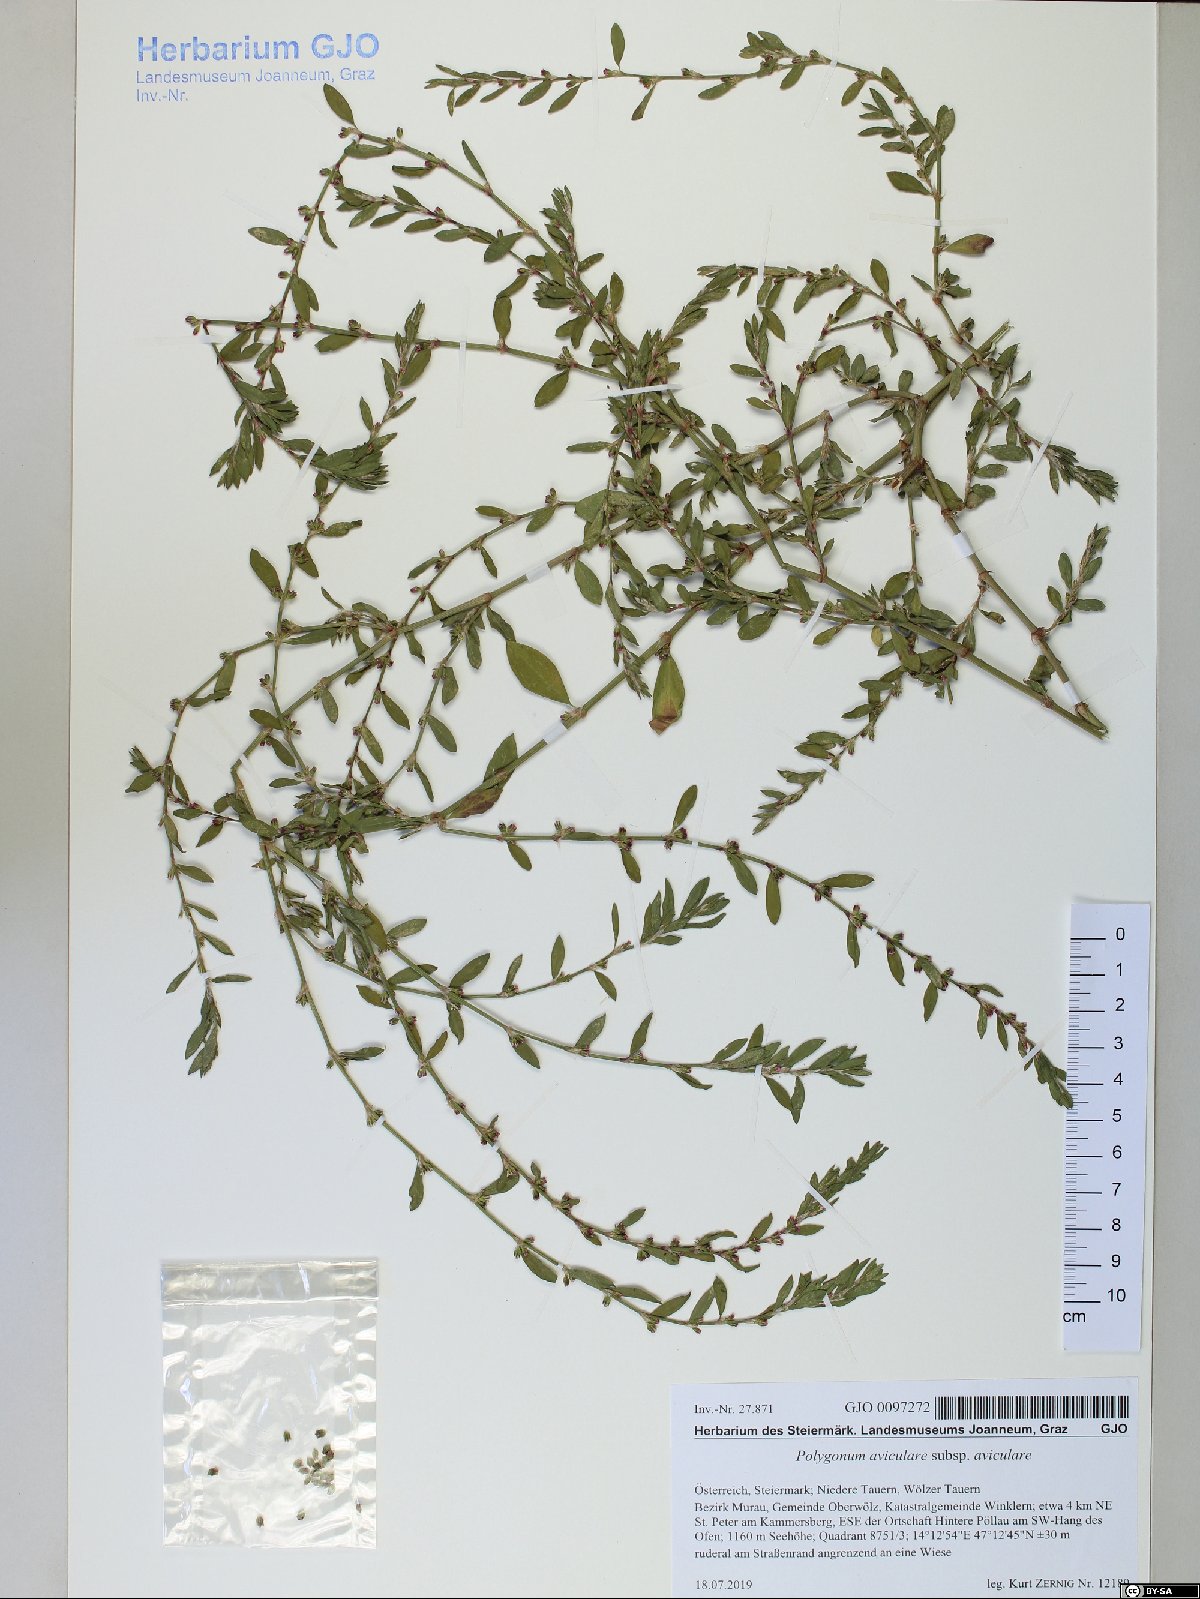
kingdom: Plantae
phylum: Tracheophyta
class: Magnoliopsida
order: Caryophyllales
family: Polygonaceae
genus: Polygonum
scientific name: Polygonum aviculare
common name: Prostrate knotweed
